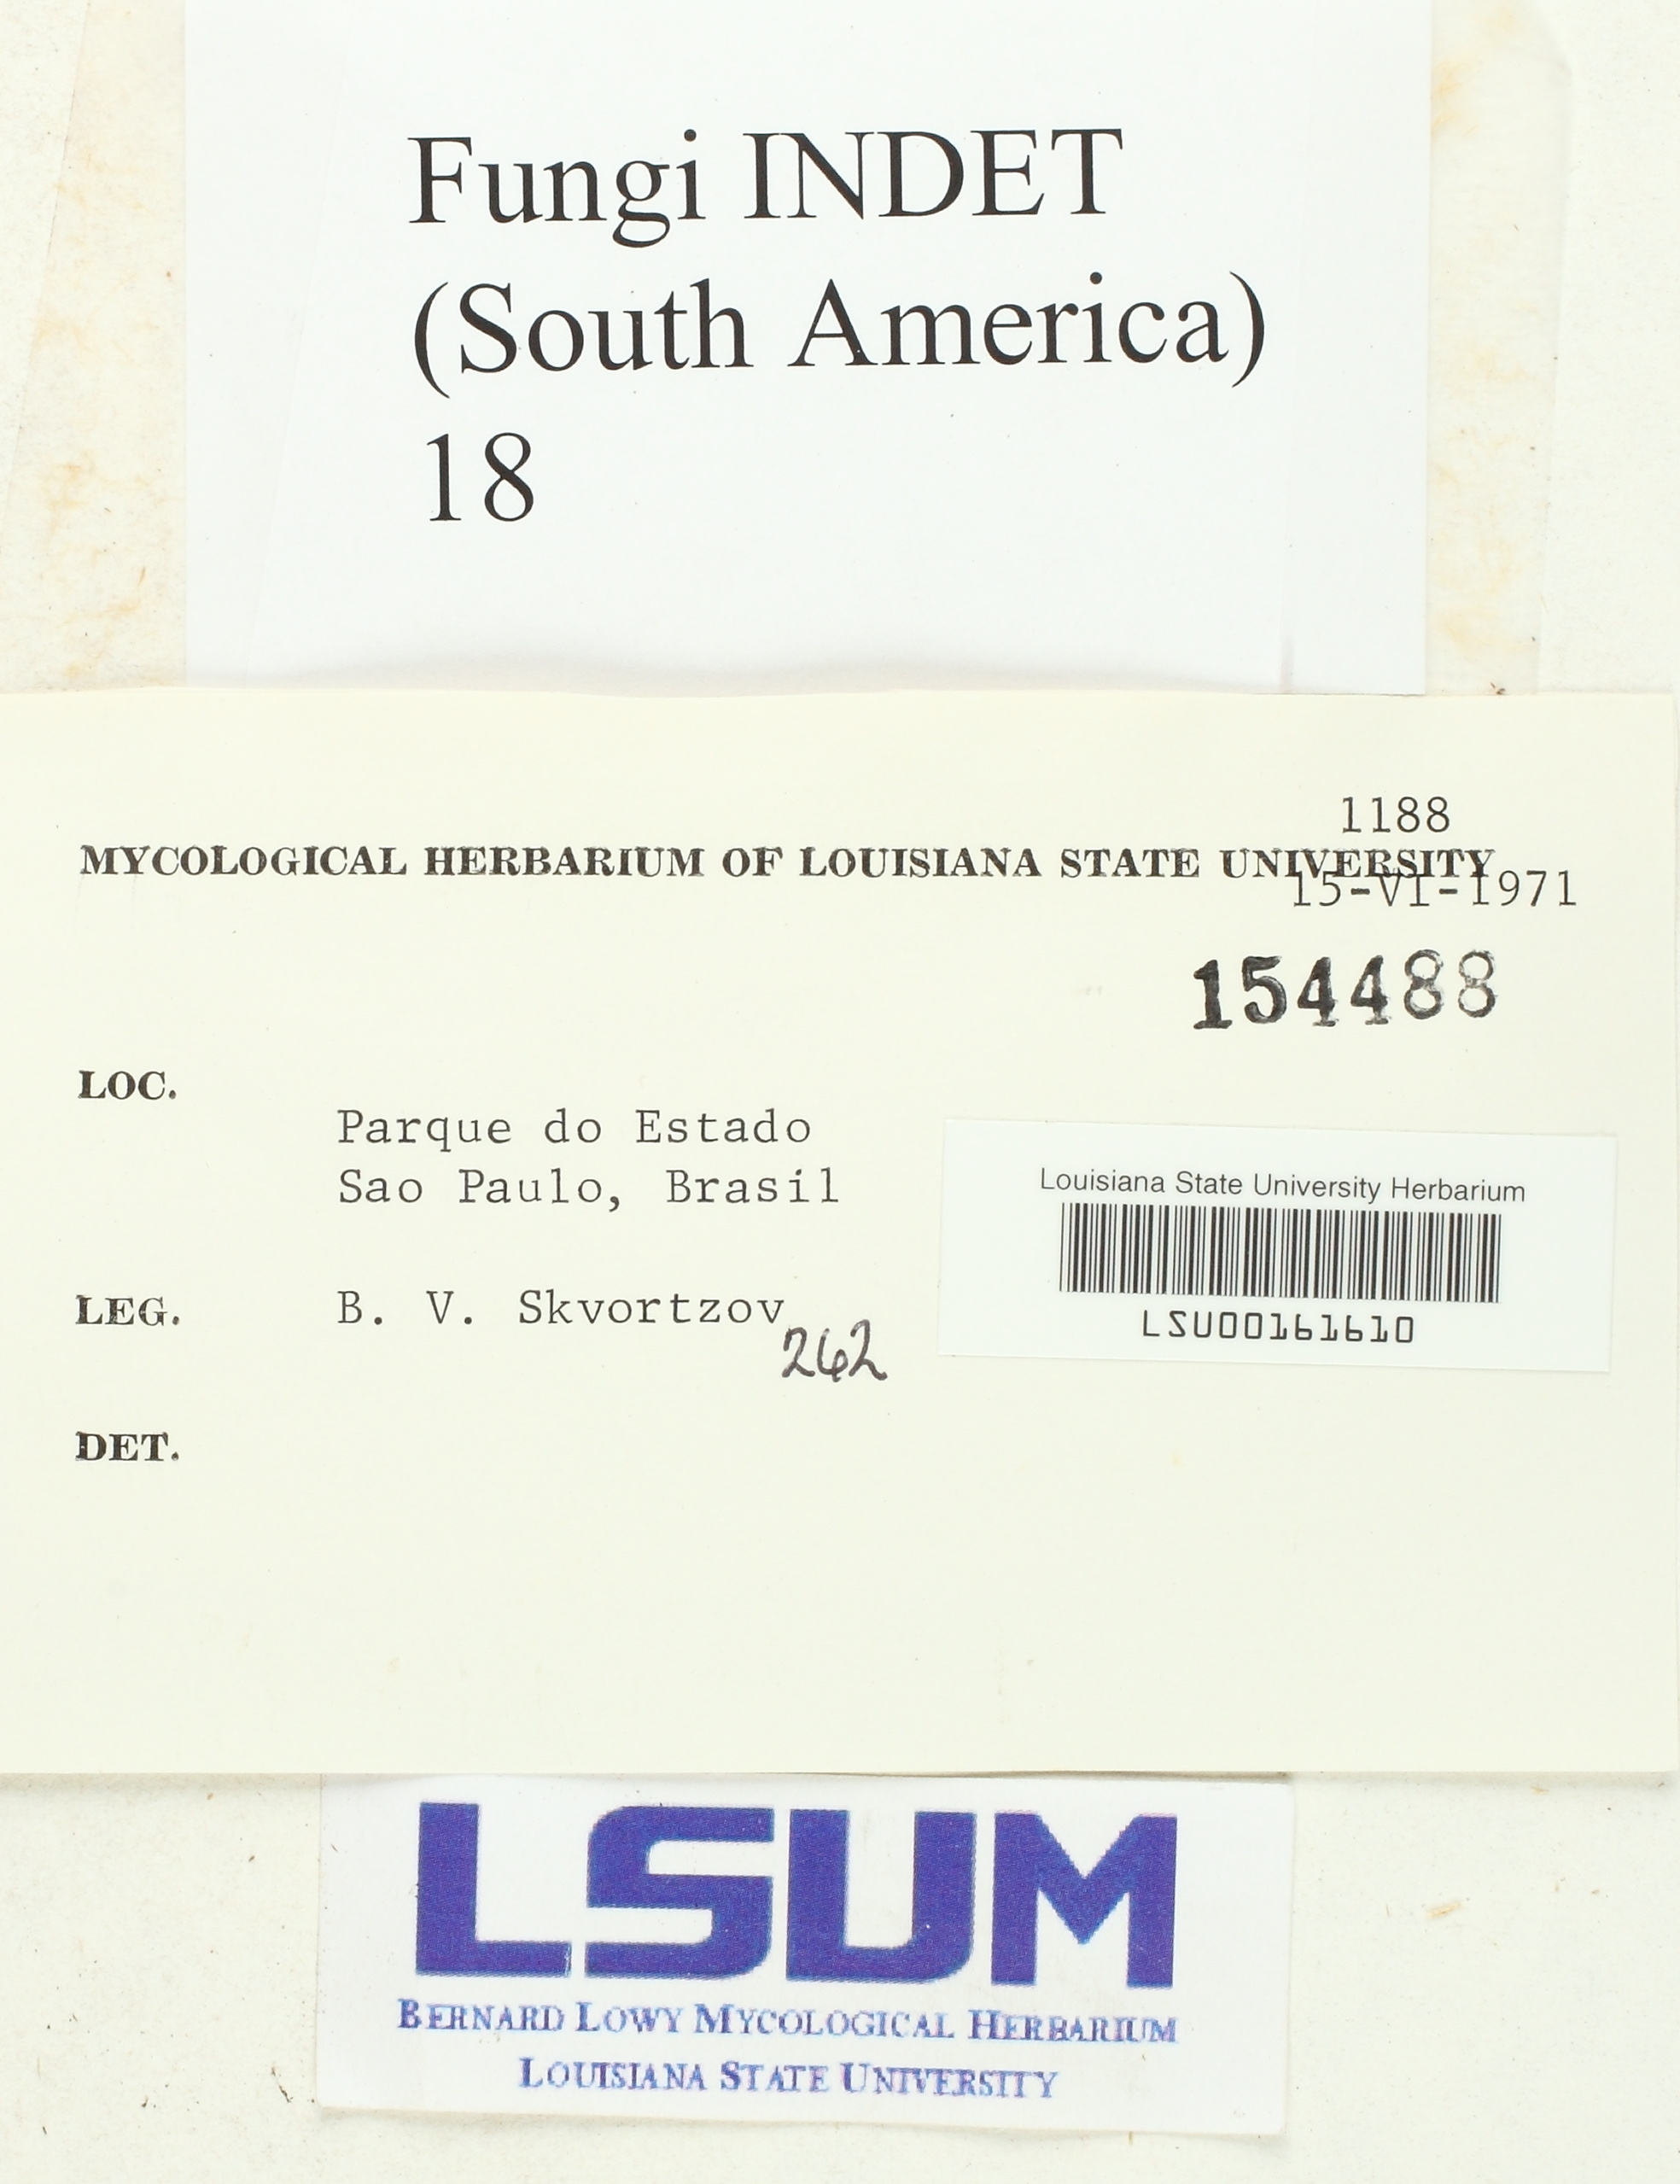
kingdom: Fungi
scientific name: Fungi
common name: Fungi
